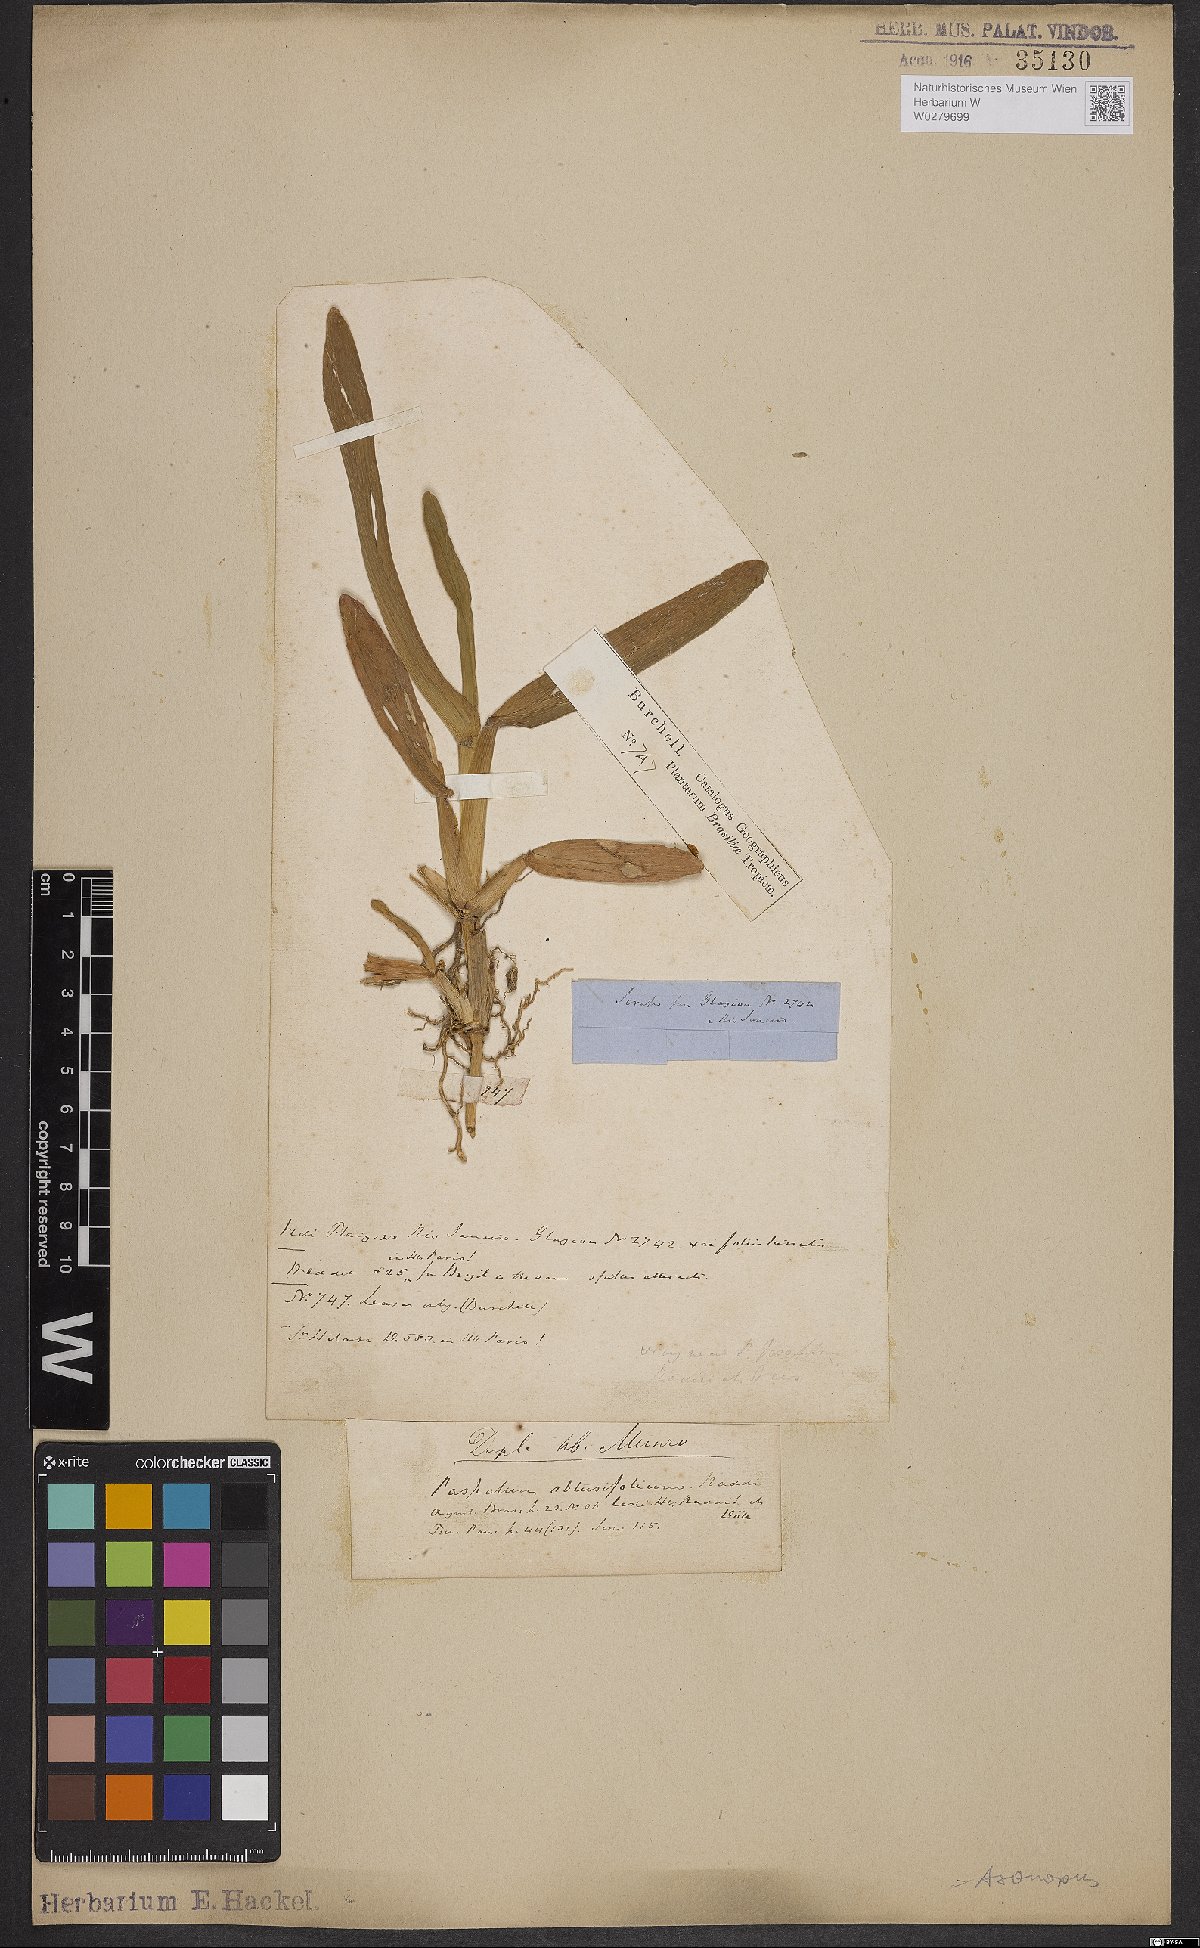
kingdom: Plantae
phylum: Tracheophyta
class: Liliopsida
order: Poales
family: Poaceae
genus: Axonopus
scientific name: Axonopus furcatus
